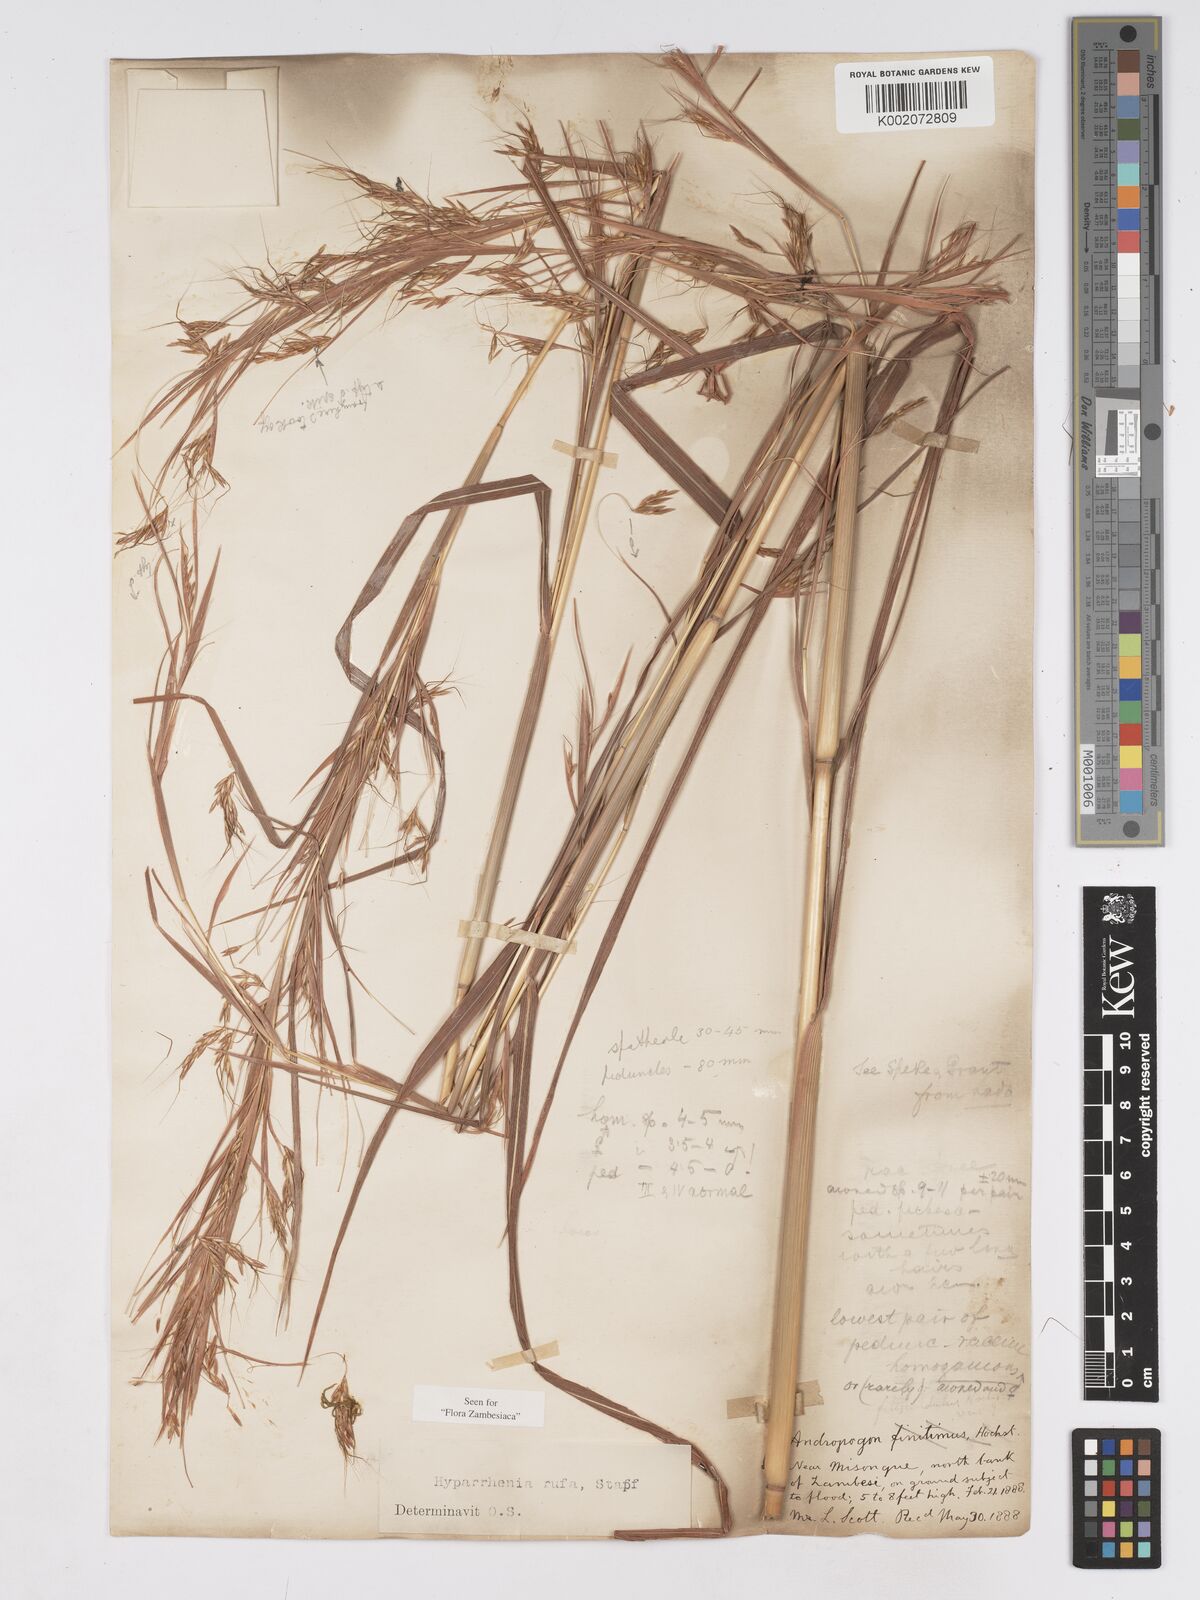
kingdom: Plantae
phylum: Tracheophyta
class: Liliopsida
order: Poales
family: Poaceae
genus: Hyparrhenia
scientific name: Hyparrhenia rufa
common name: Jaraguagrass
